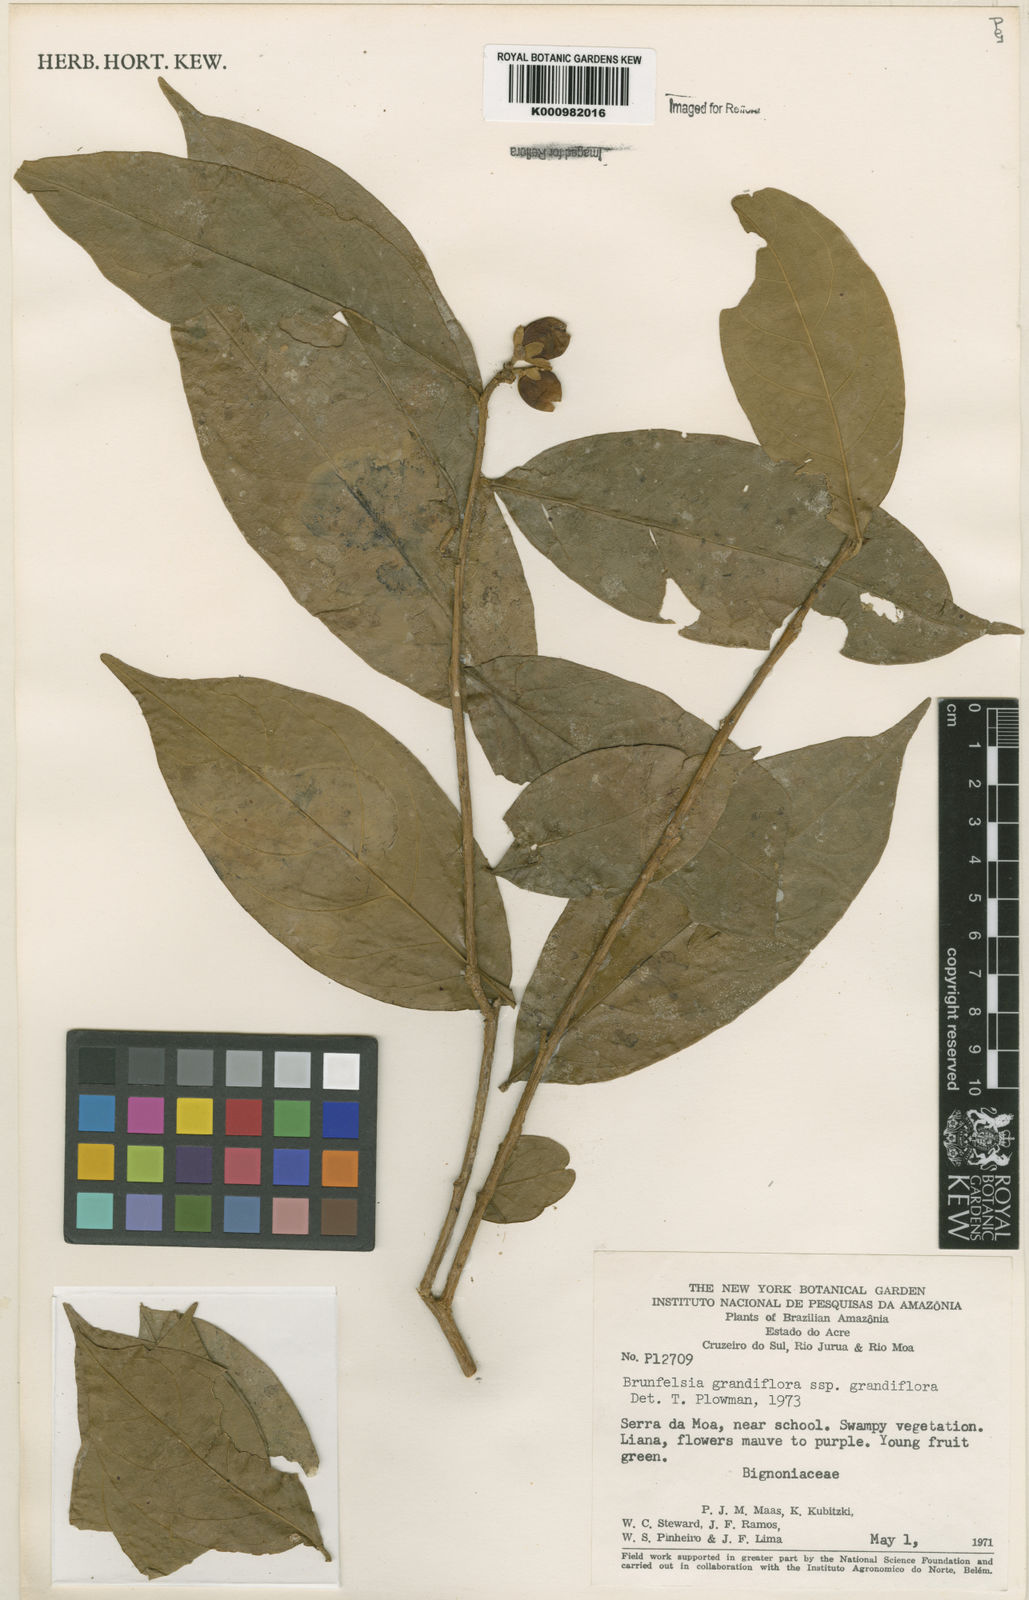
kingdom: Plantae
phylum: Tracheophyta
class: Magnoliopsida
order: Solanales
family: Solanaceae
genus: Brunfelsia
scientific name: Brunfelsia grandiflora
